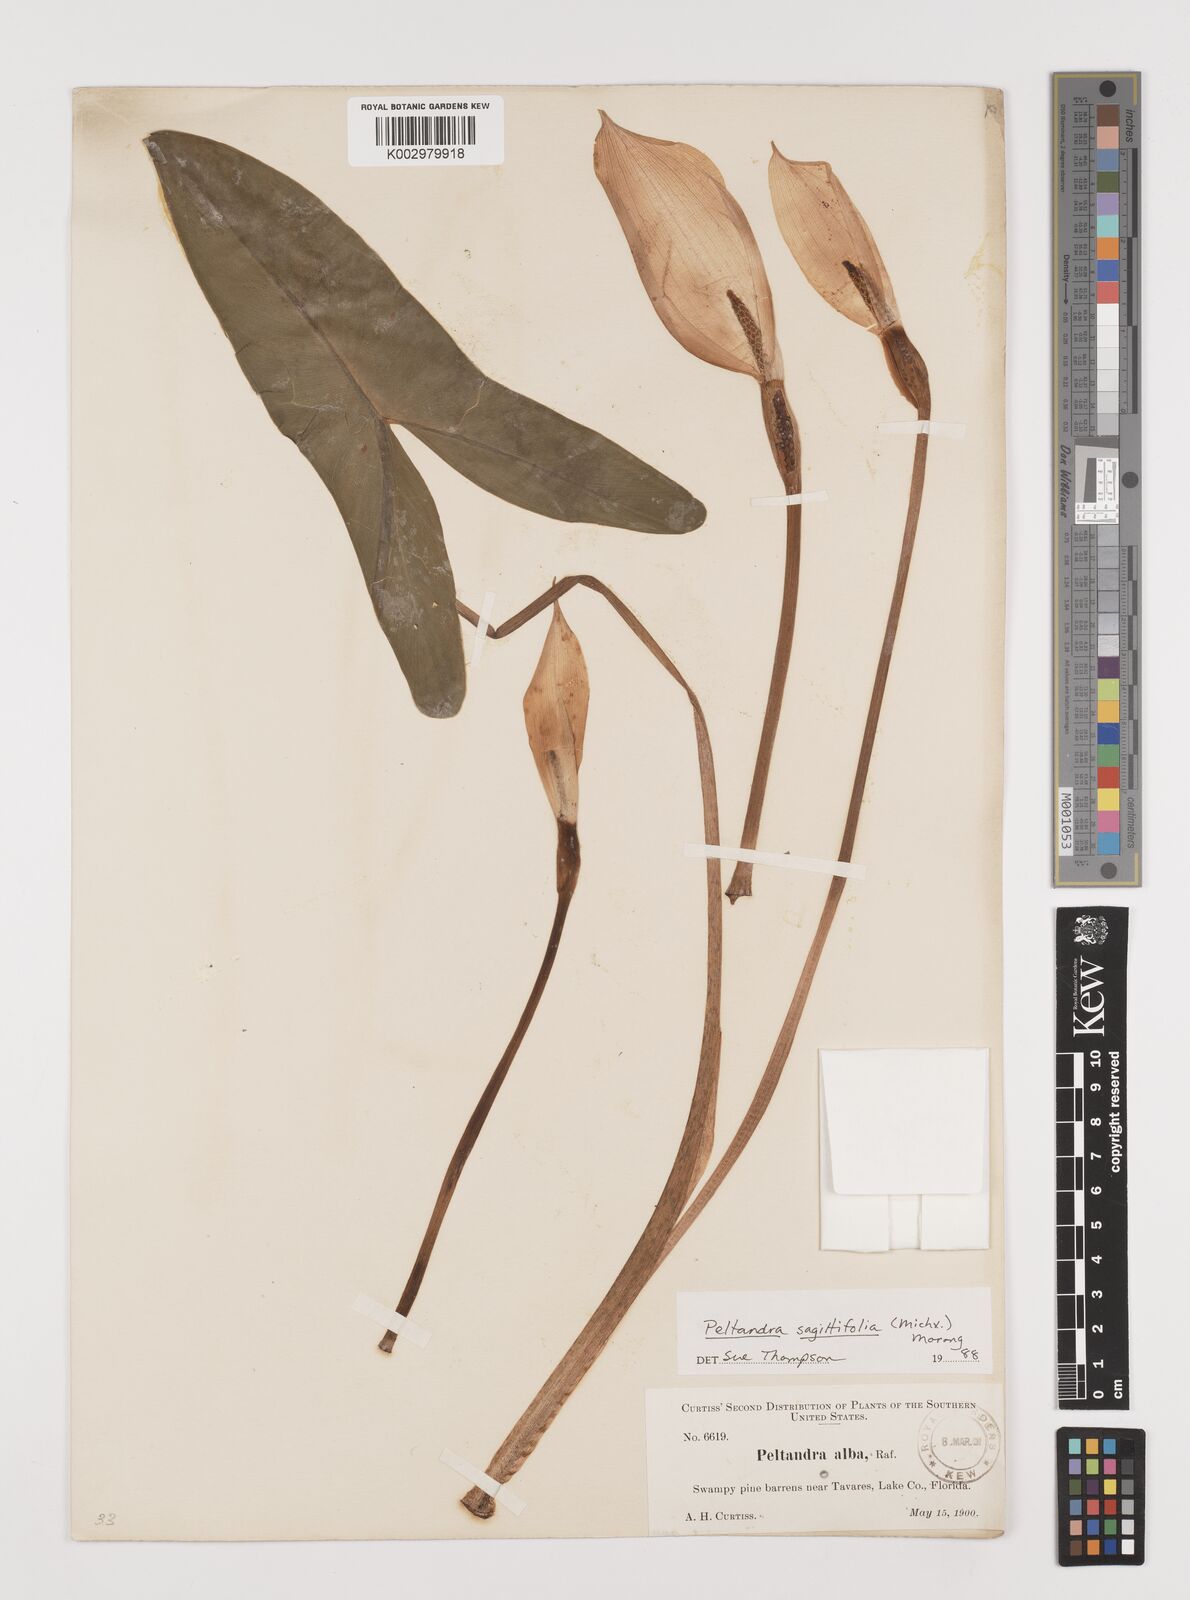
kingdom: Plantae
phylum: Tracheophyta
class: Liliopsida
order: Alismatales
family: Araceae
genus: Peltandra
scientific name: Peltandra sagittifolia
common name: White arrow arum
